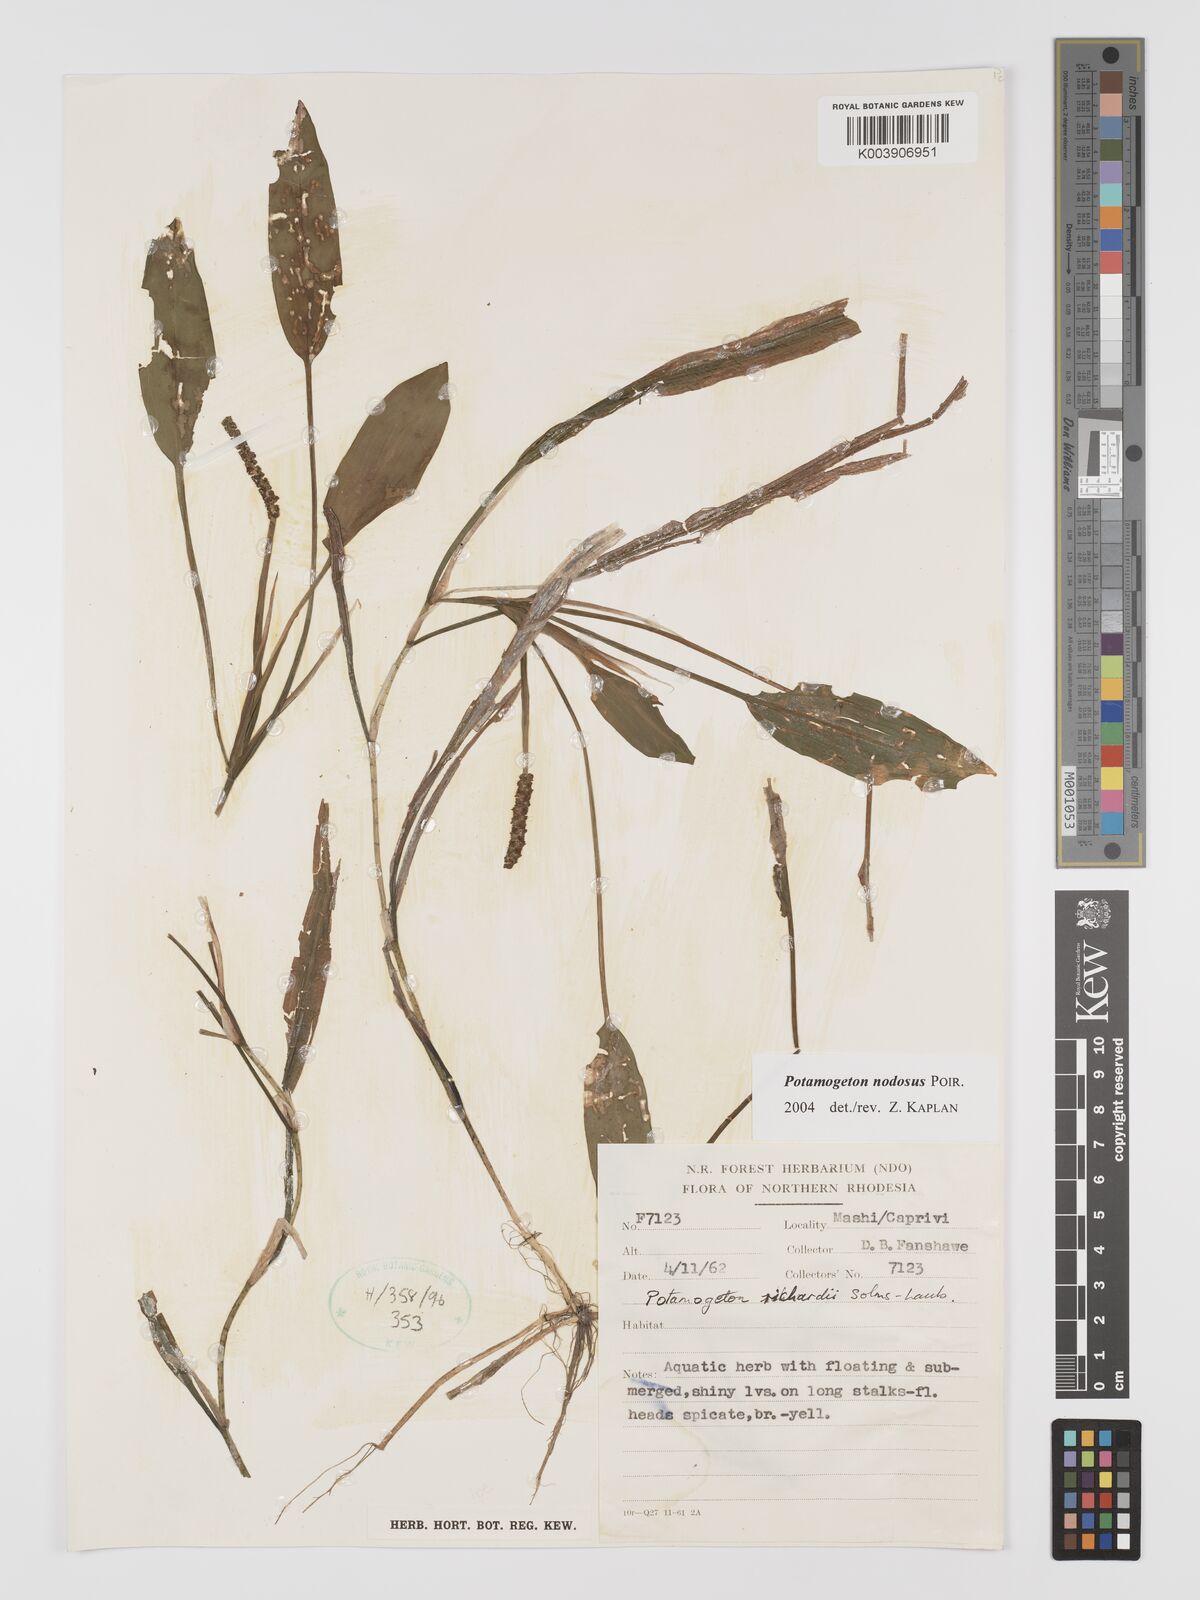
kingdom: Plantae
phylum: Tracheophyta
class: Liliopsida
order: Alismatales
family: Potamogetonaceae
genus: Potamogeton
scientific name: Potamogeton nodosus
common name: Loddon pondweed
